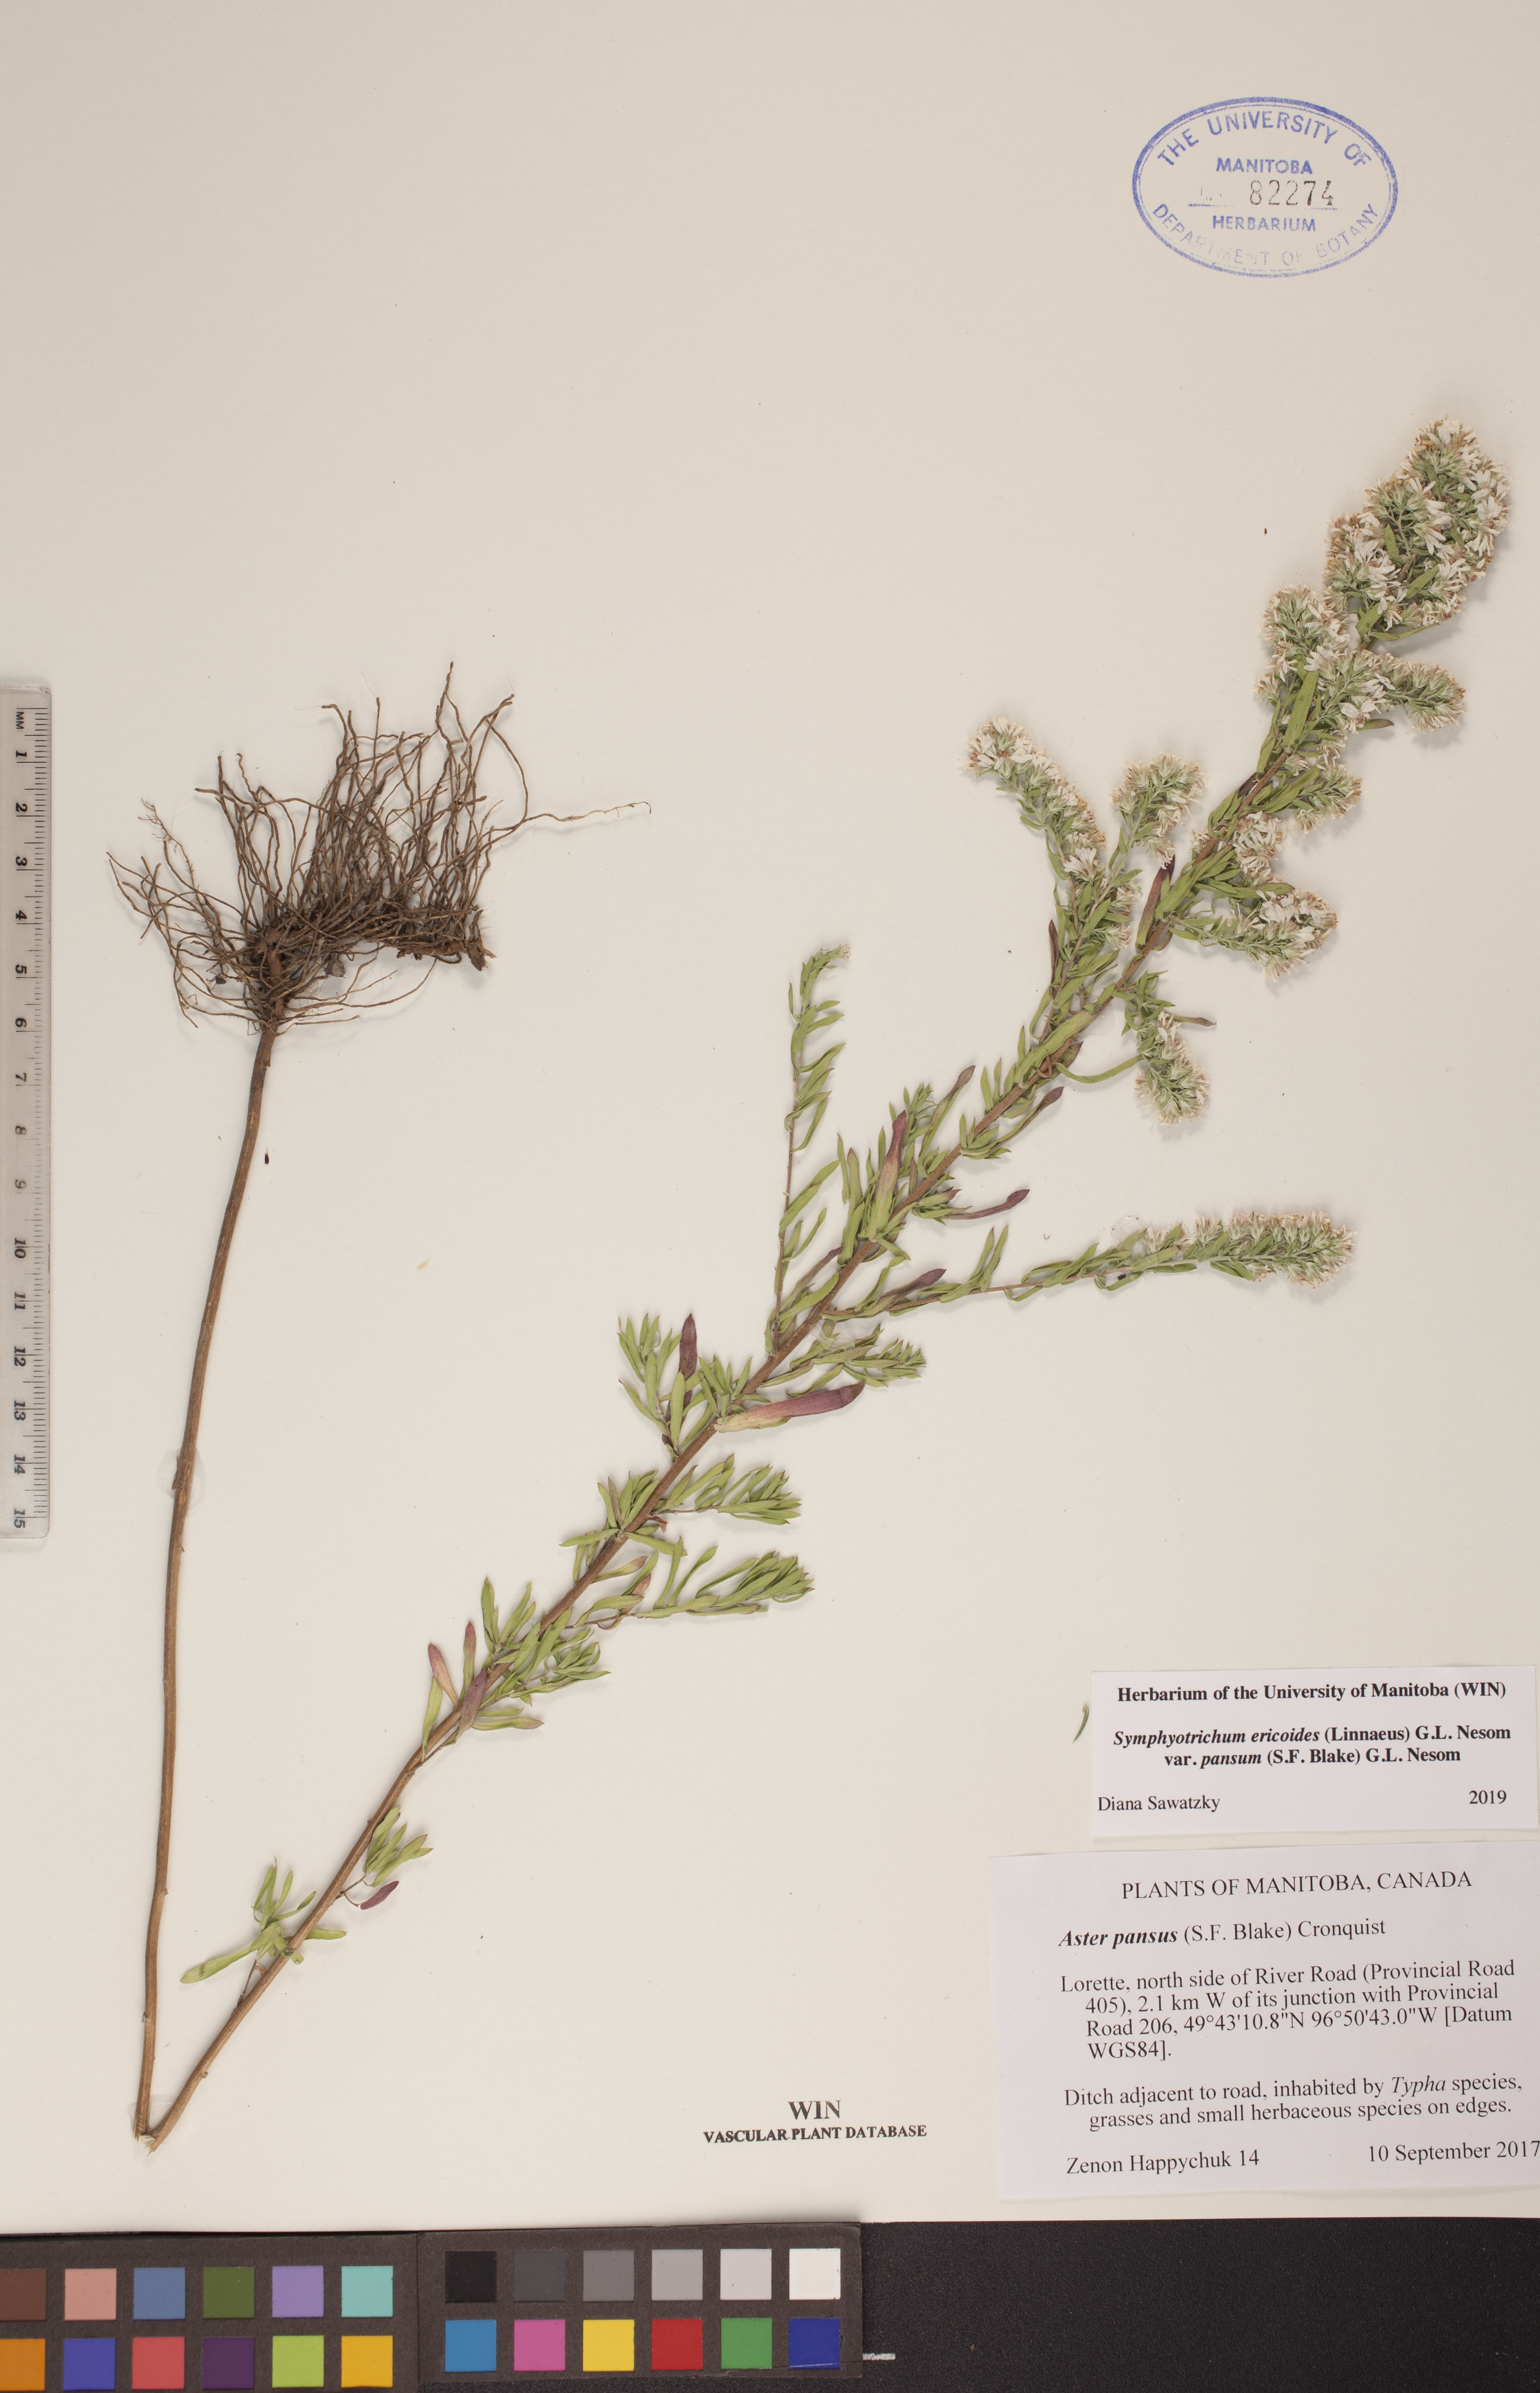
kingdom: Plantae
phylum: Tracheophyta
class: Magnoliopsida
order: Asterales
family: Asteraceae
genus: Symphyotrichum
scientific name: Symphyotrichum ericoides
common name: Heath aster
